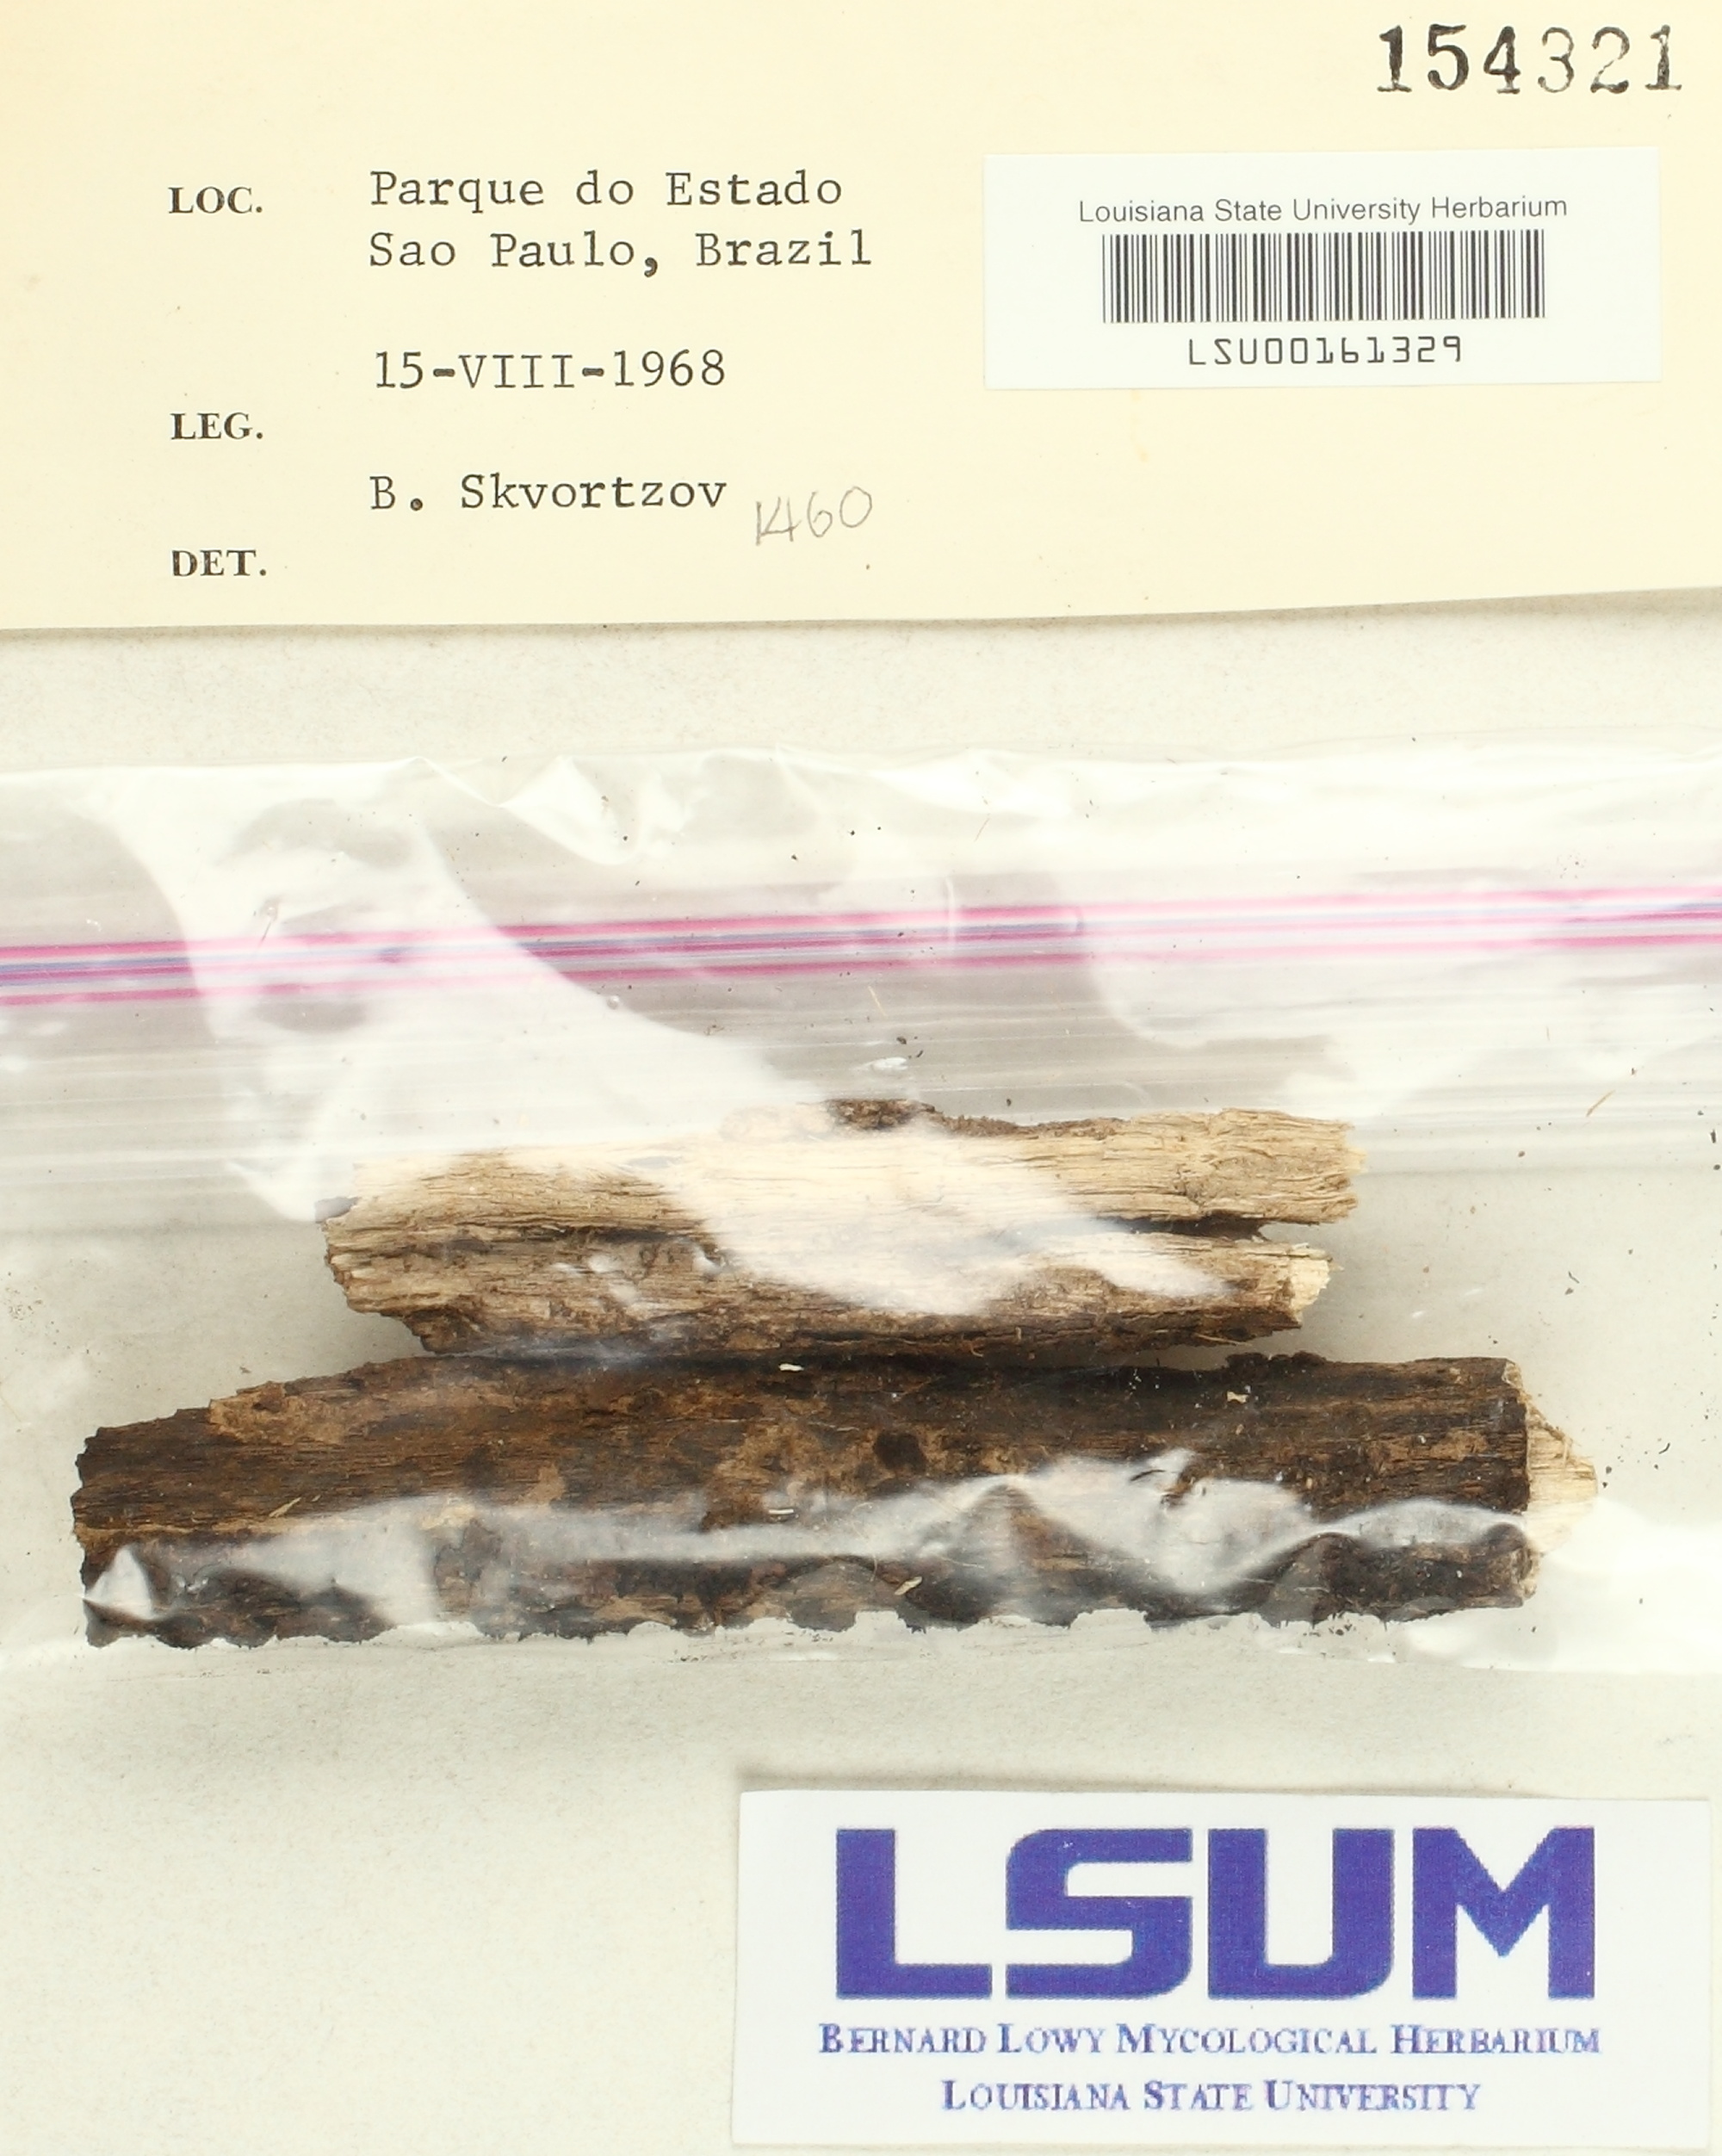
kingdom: Fungi
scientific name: Fungi
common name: Fungi
